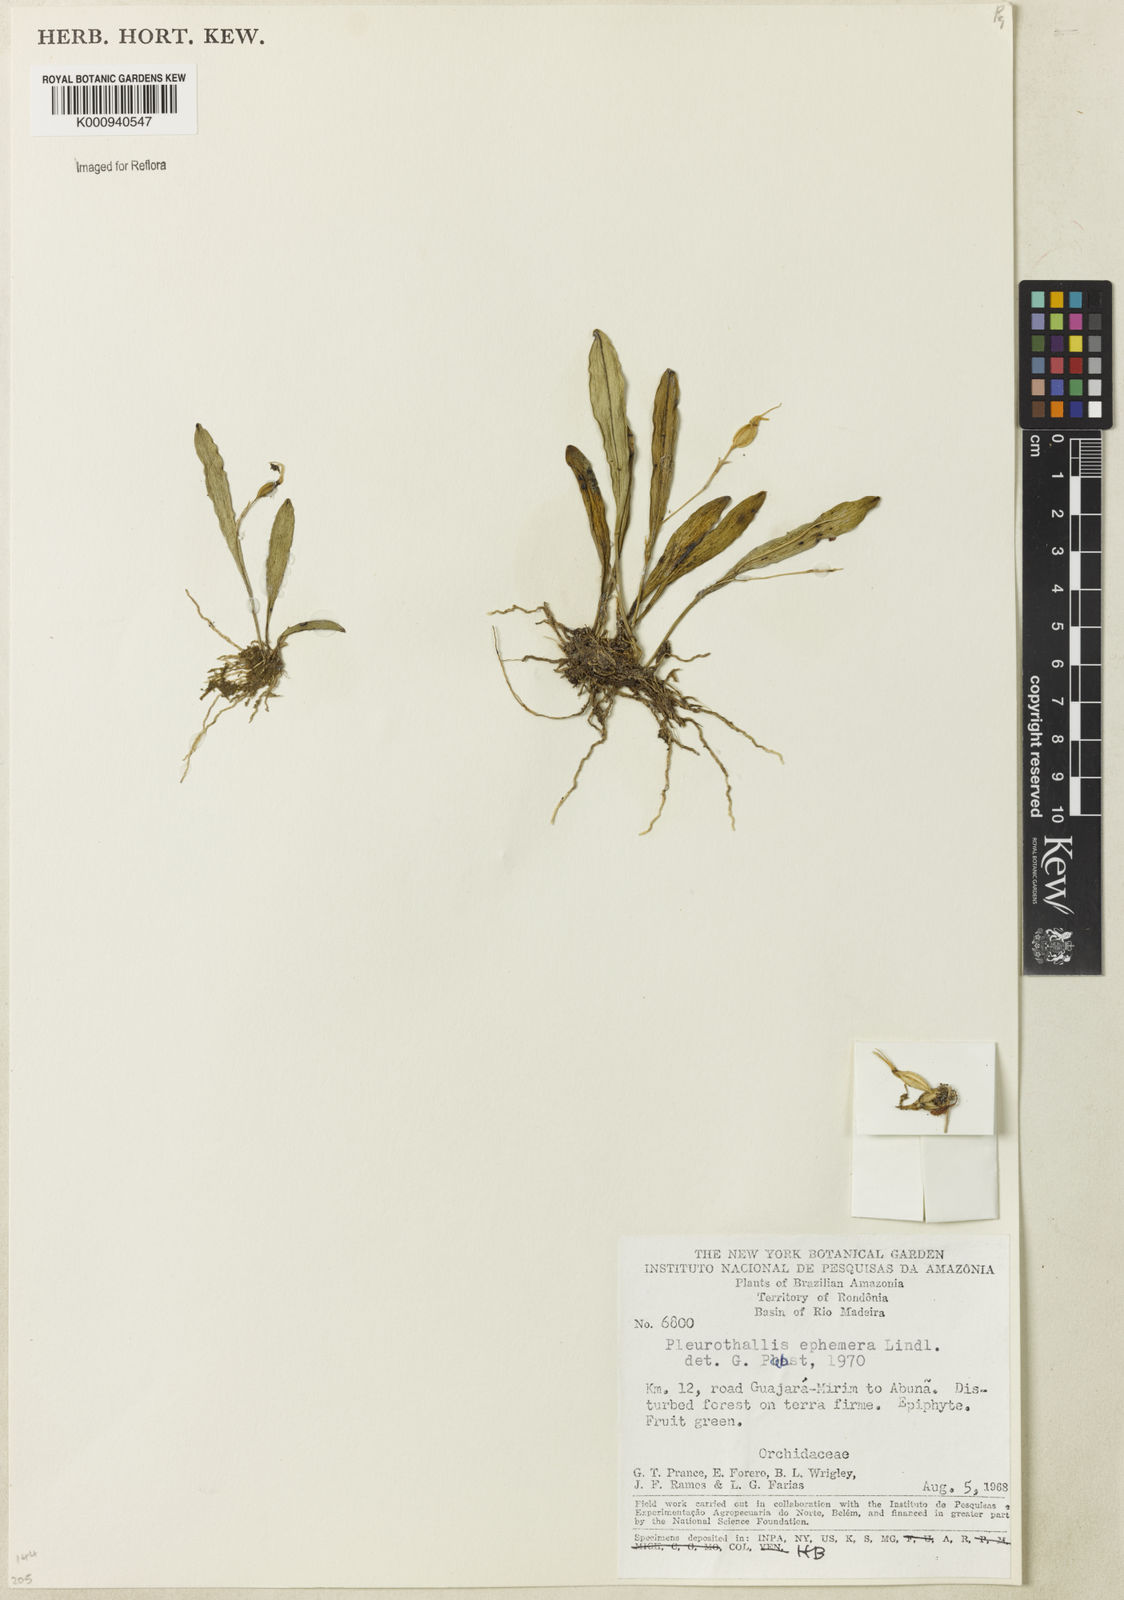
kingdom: Plantae
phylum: Tracheophyta
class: Liliopsida
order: Asparagales
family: Orchidaceae
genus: Pabstiella
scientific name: Pabstiella ephemera
